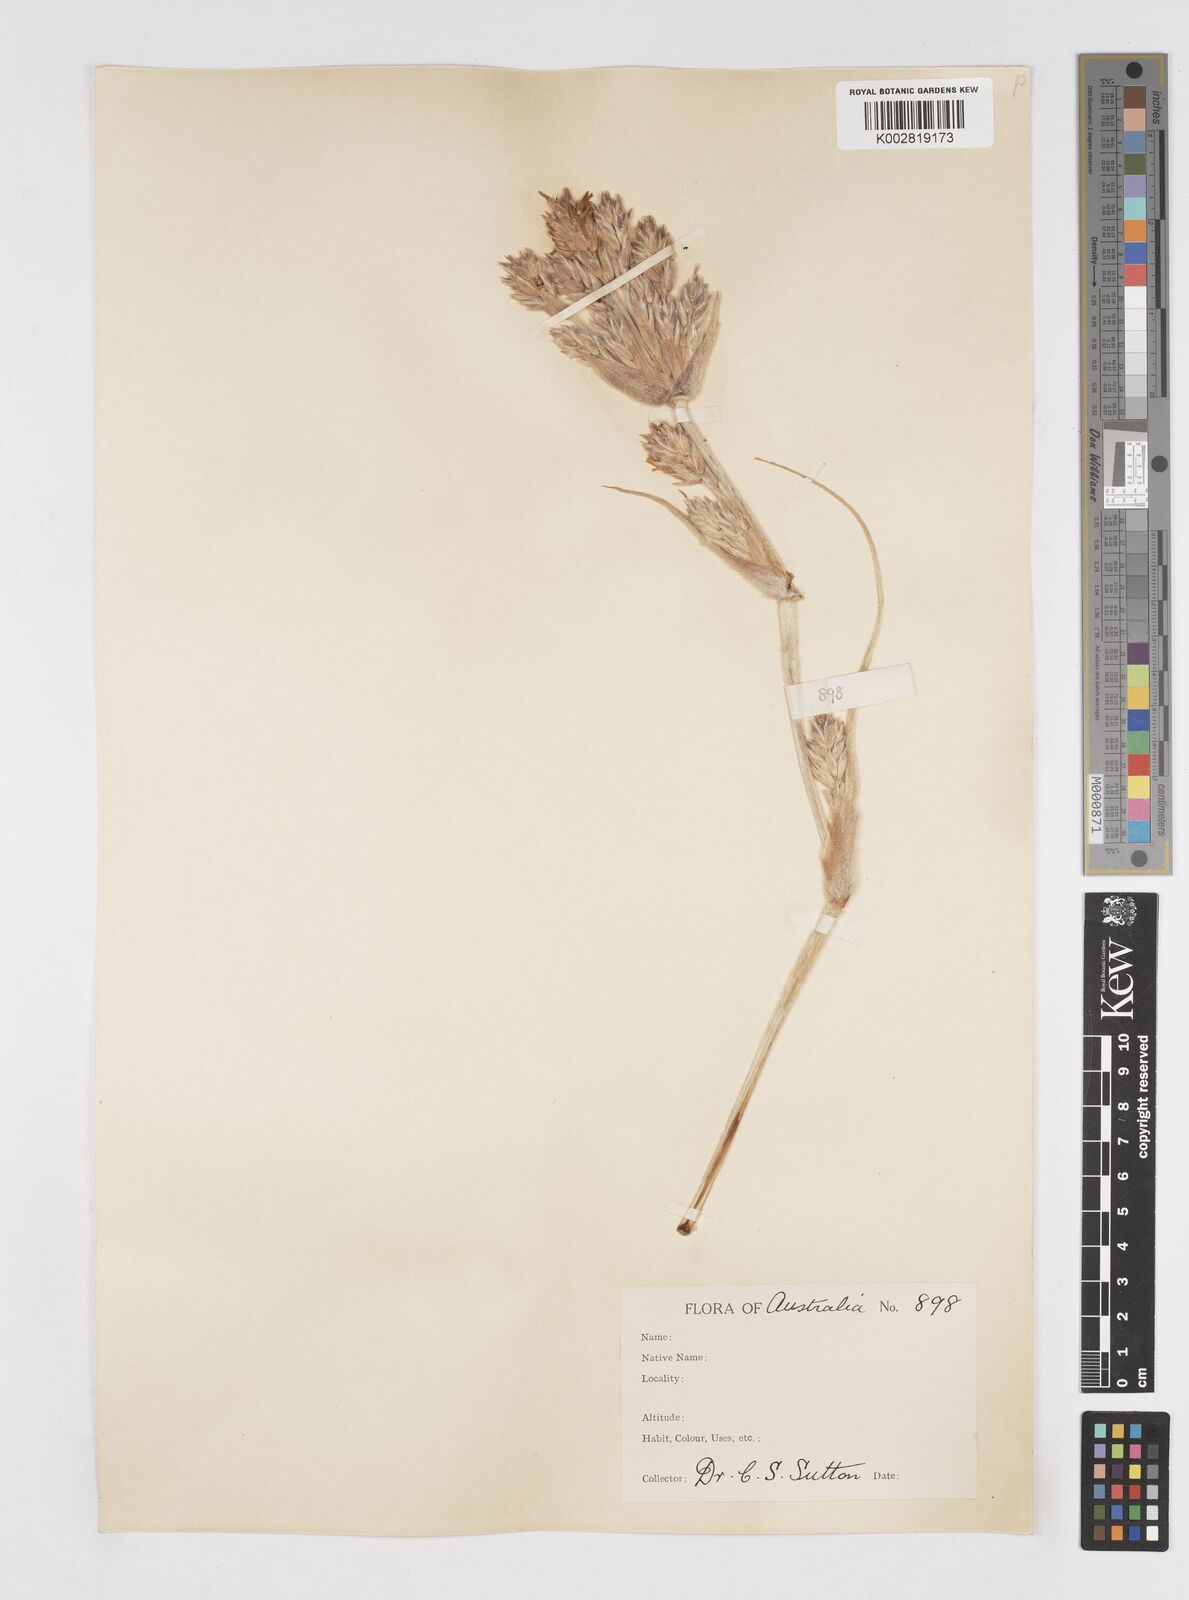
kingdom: Plantae
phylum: Tracheophyta
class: Liliopsida
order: Poales
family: Poaceae
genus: Spinifex
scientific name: Spinifex hirsutus
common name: Hairy spinifex
